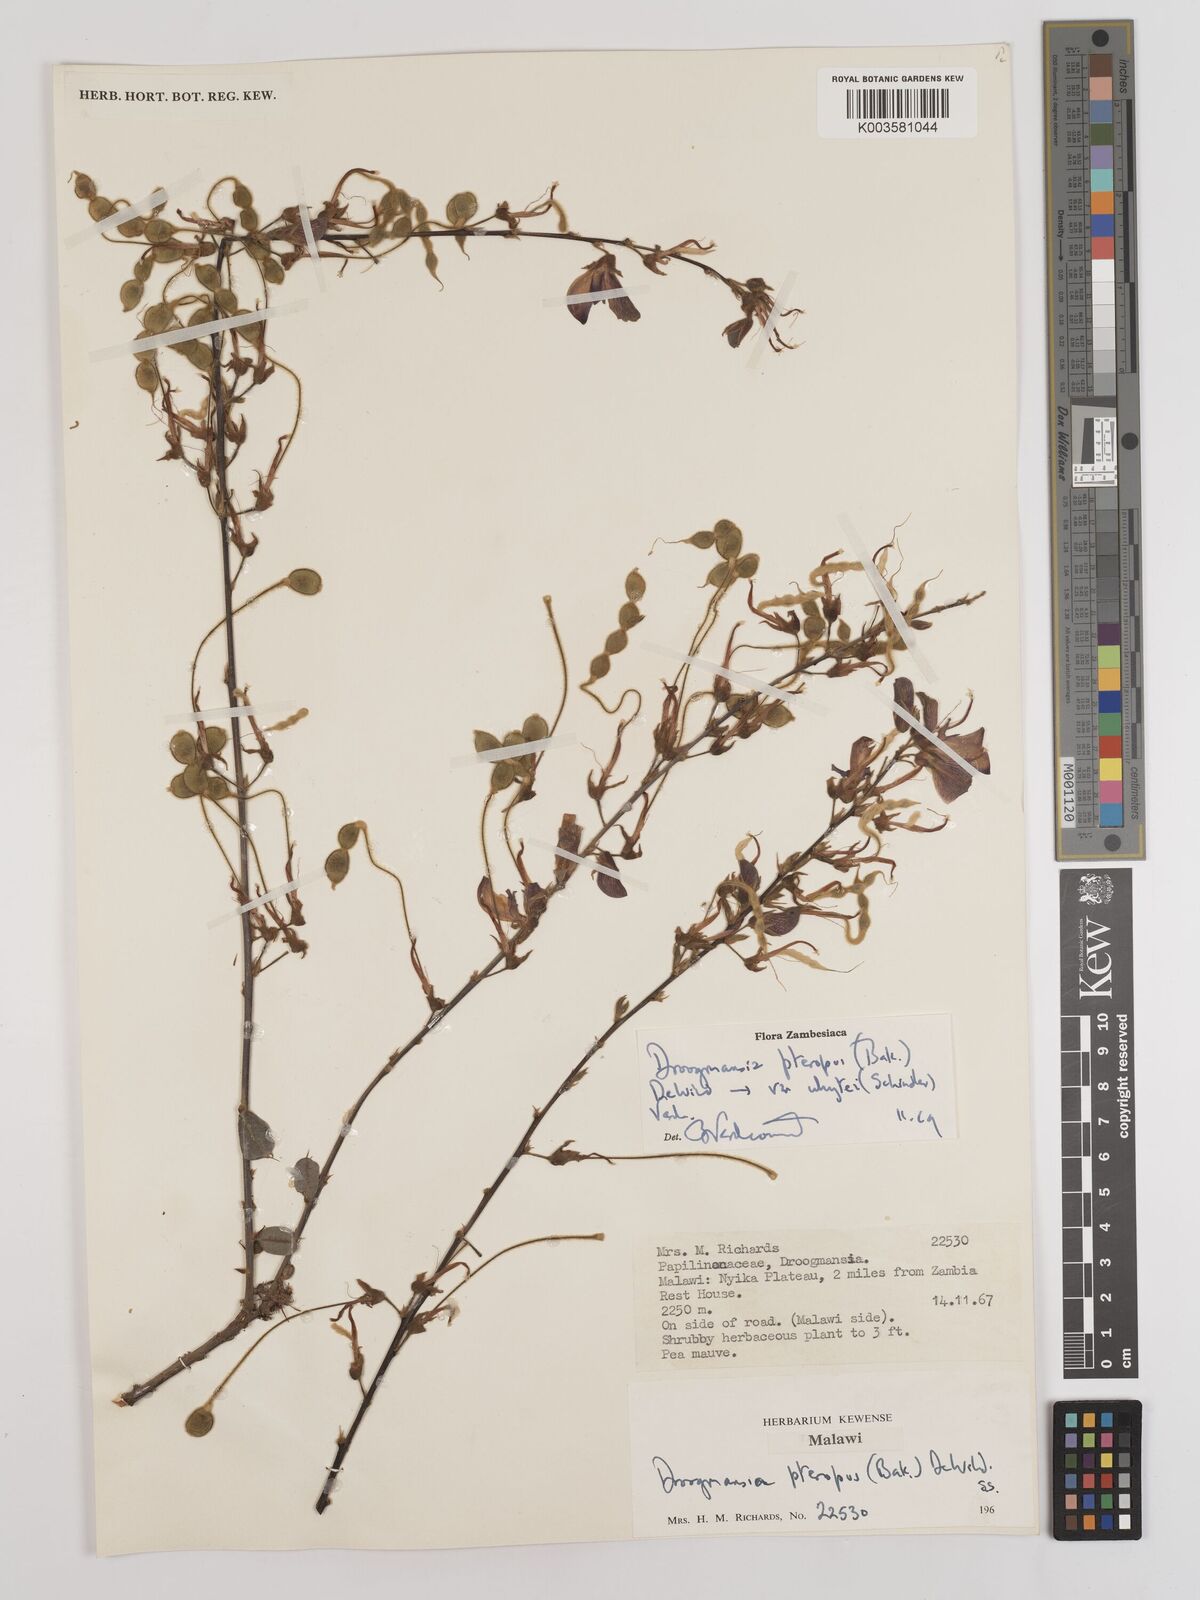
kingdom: Plantae
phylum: Tracheophyta
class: Magnoliopsida
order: Fabales
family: Fabaceae
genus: Droogmansia
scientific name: Droogmansia pteropus
